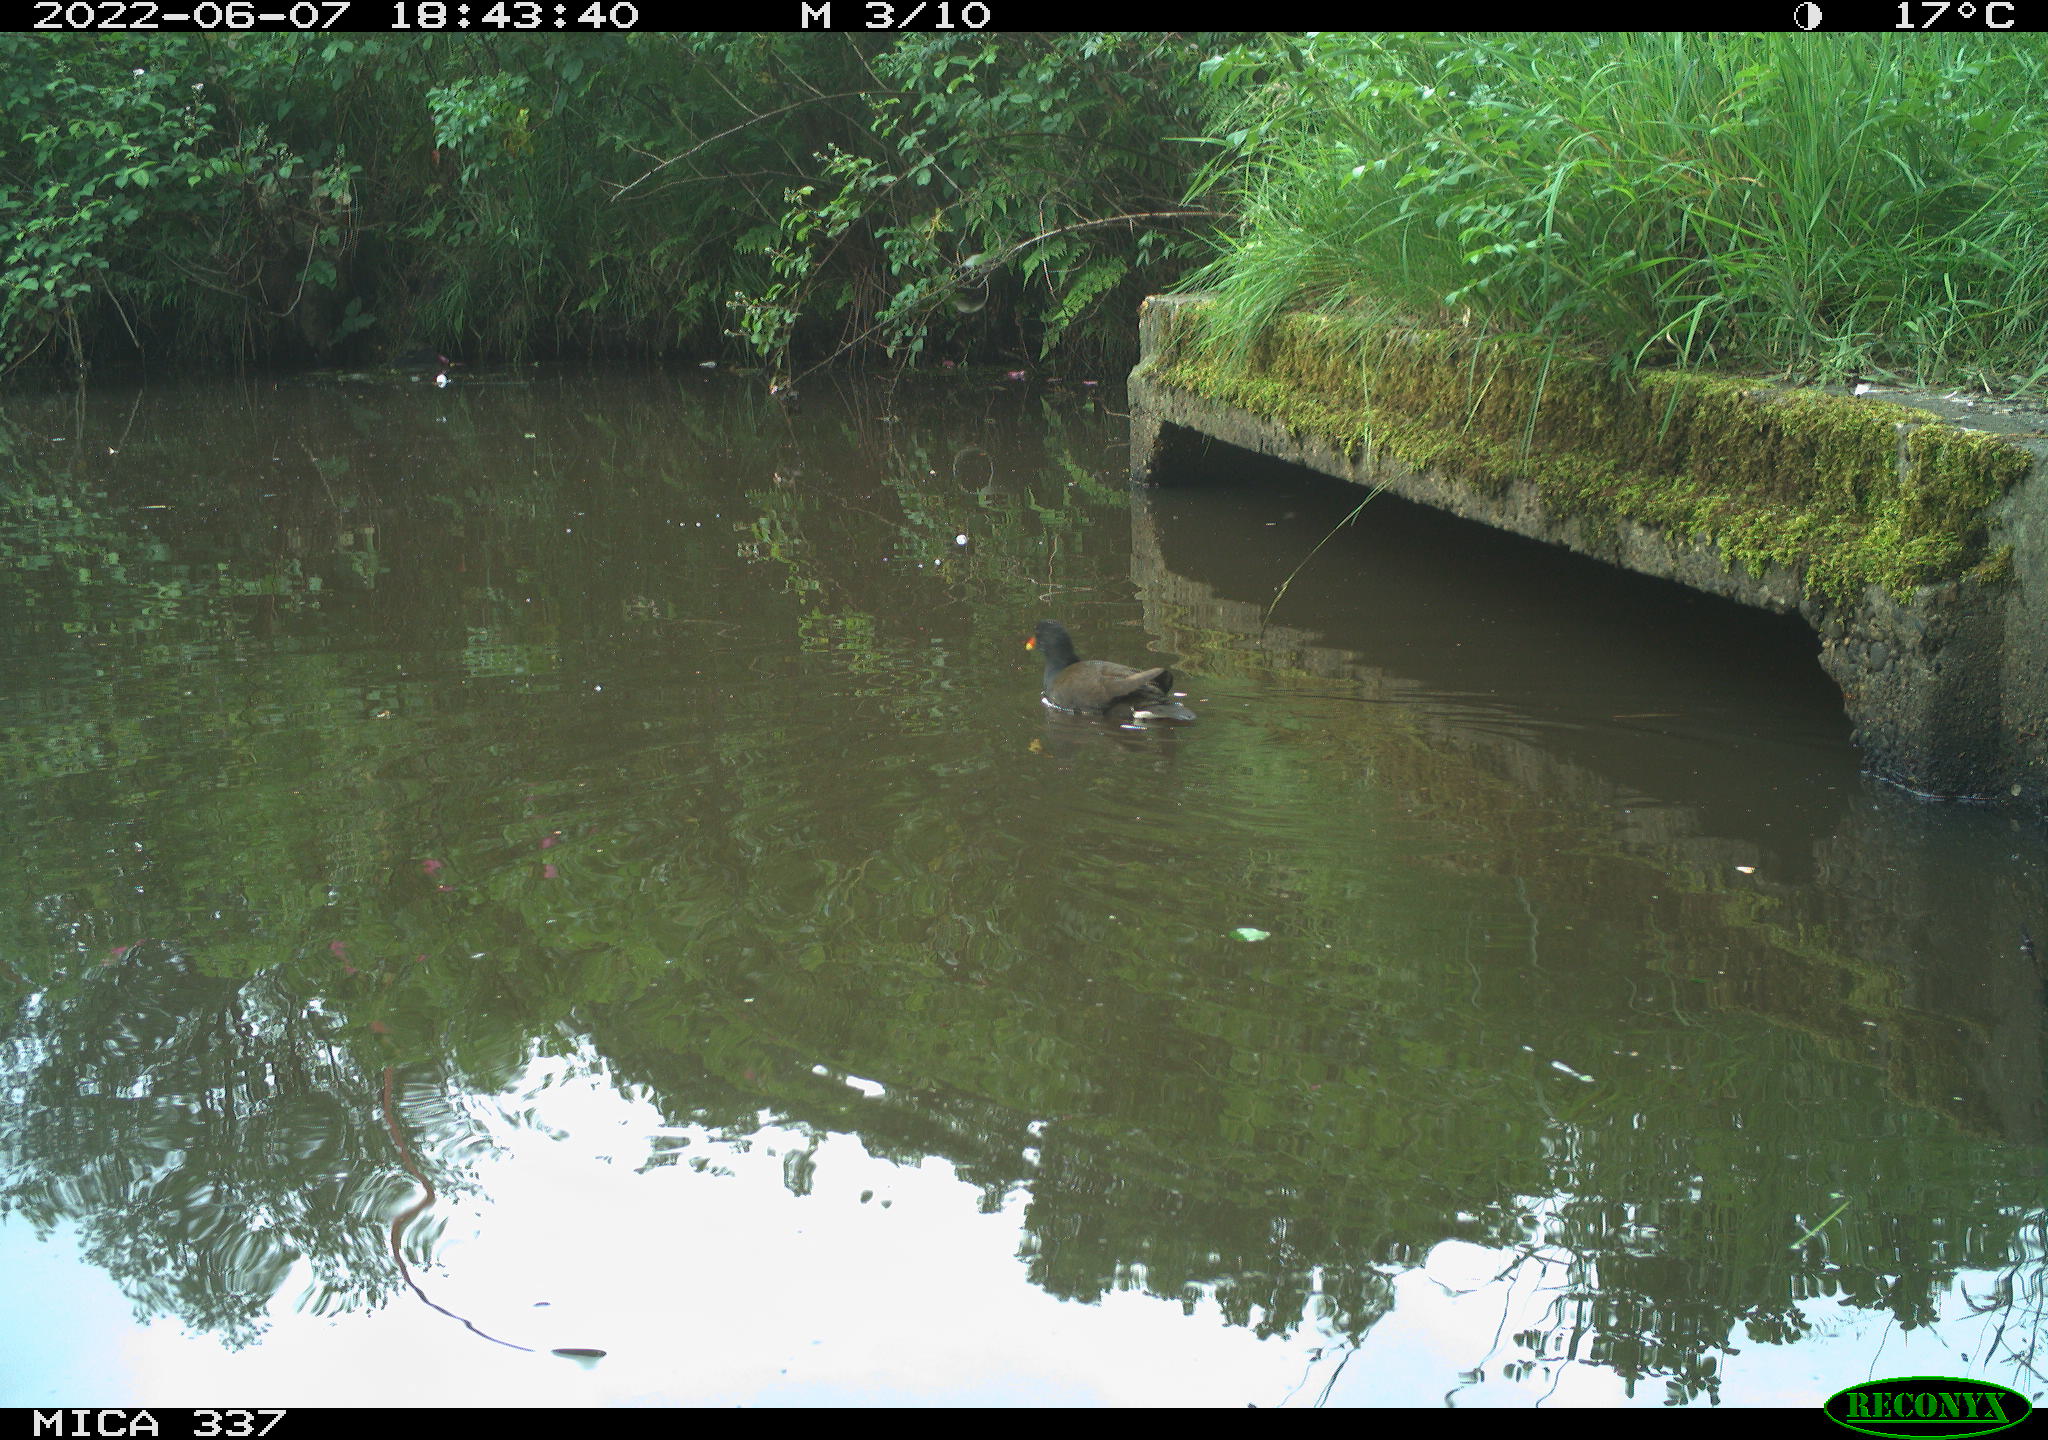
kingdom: Animalia
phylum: Chordata
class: Aves
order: Gruiformes
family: Rallidae
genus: Gallinula
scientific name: Gallinula chloropus
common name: Common moorhen
